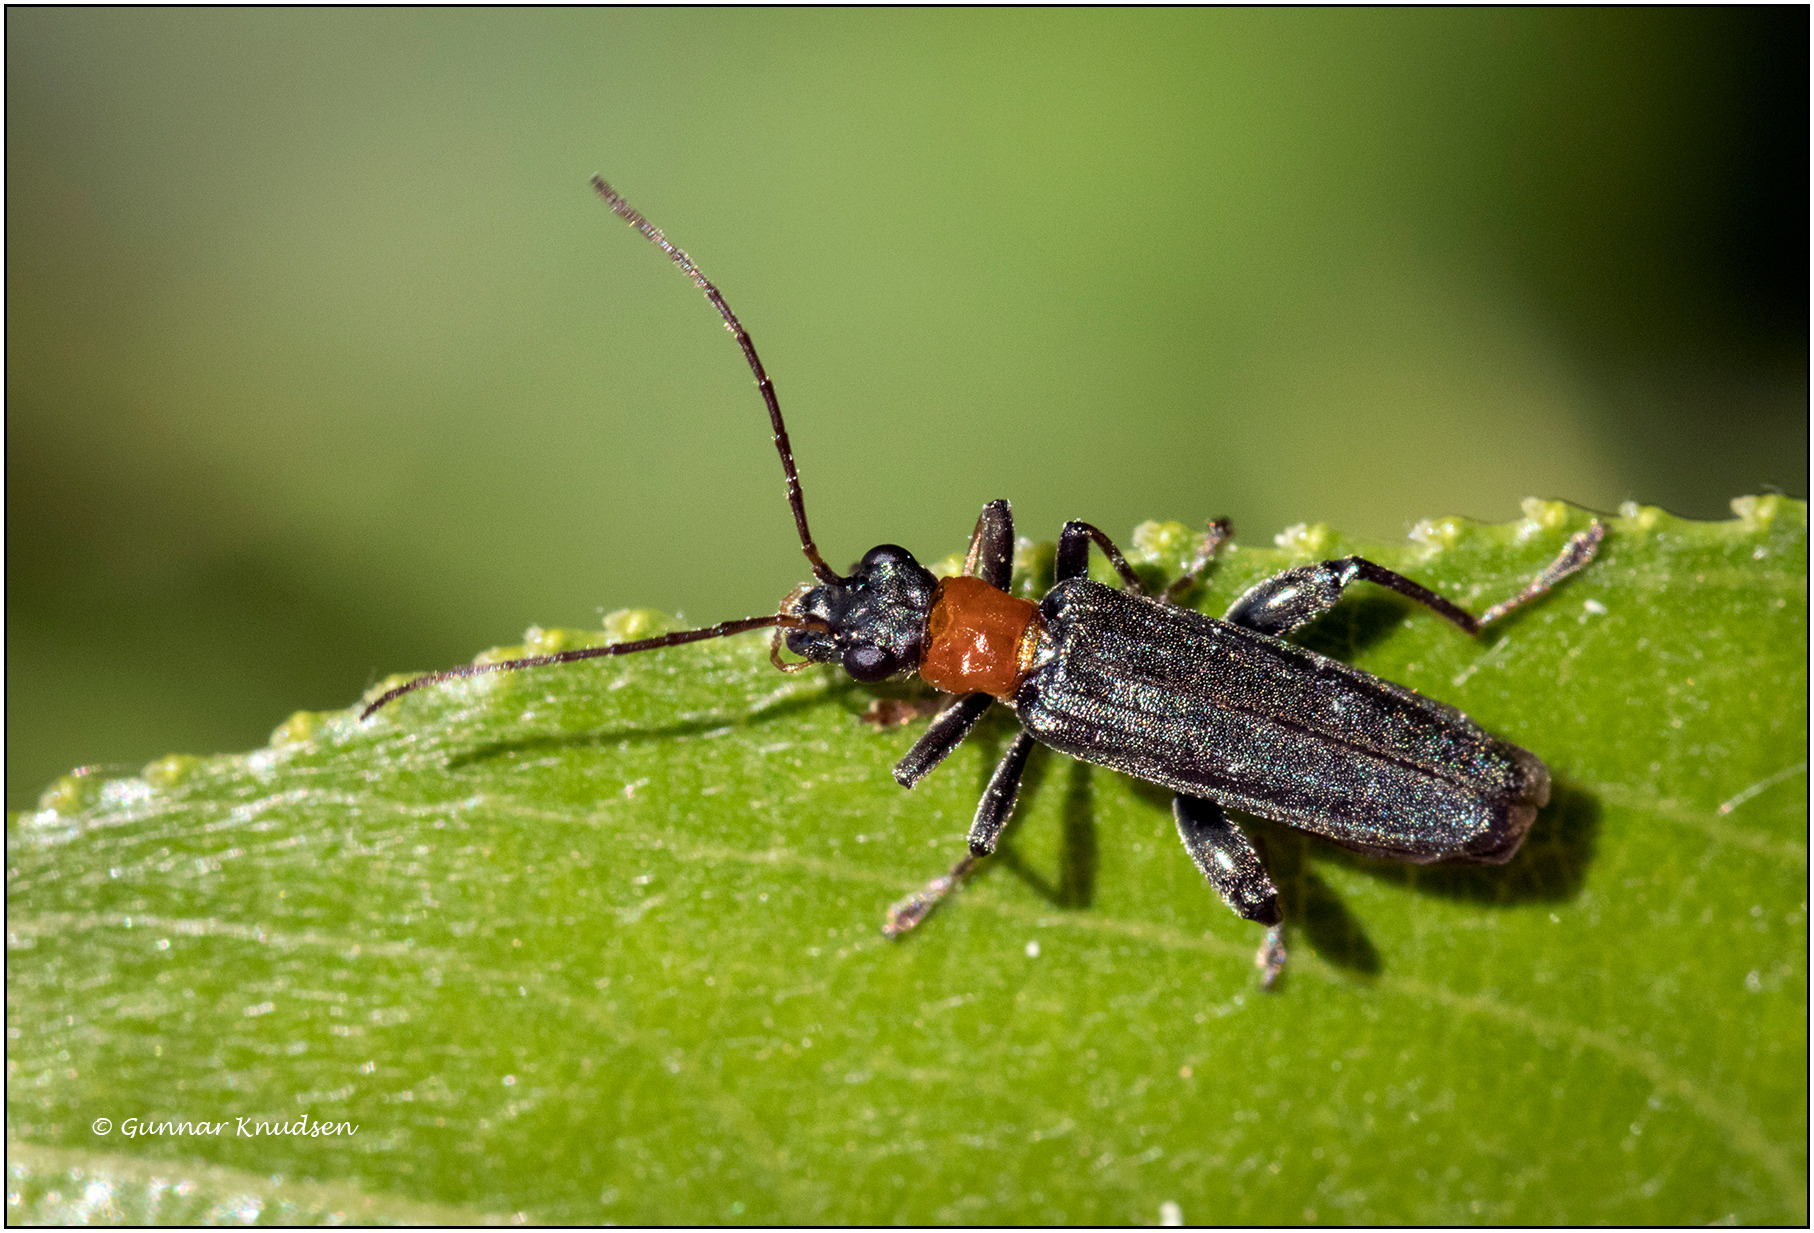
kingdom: Animalia
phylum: Arthropoda
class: Insecta
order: Coleoptera
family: Oedemeridae
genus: Oedemera
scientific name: Oedemera croceicollis
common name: Orangebrystet solbille
